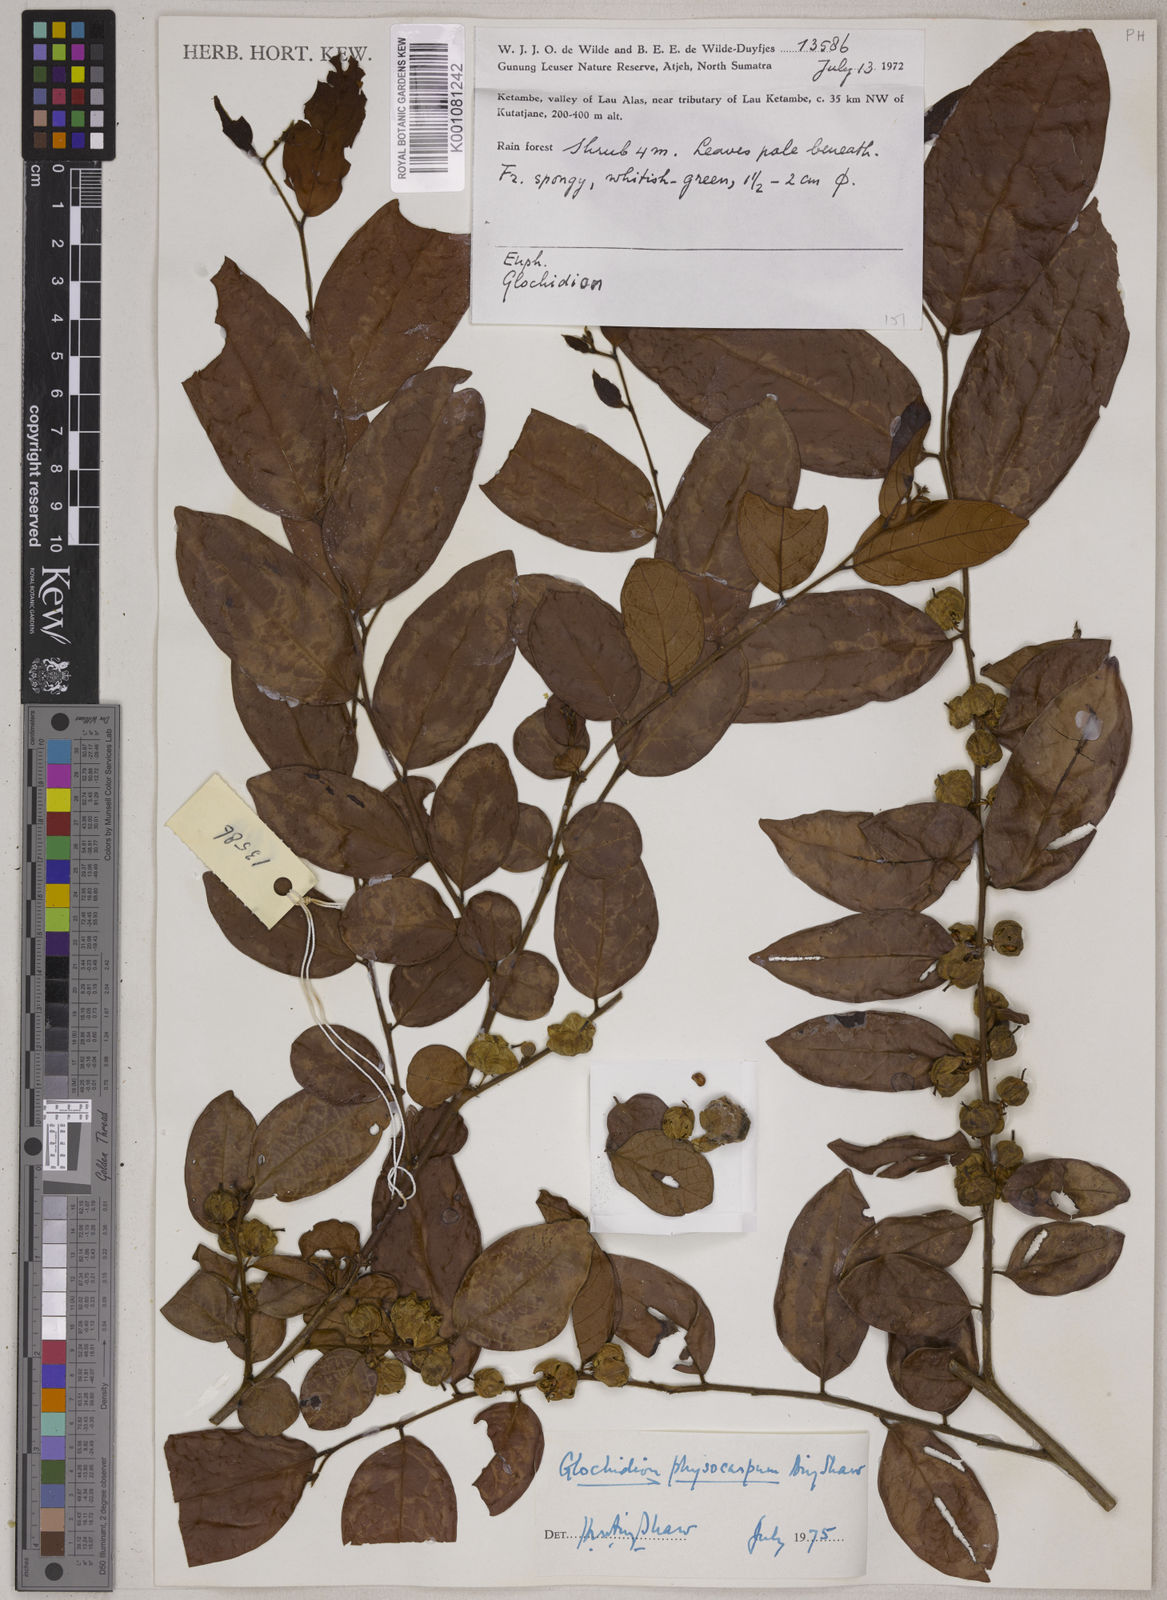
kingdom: Plantae
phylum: Tracheophyta
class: Magnoliopsida
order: Malpighiales
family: Phyllanthaceae
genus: Glochidion
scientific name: Glochidion meijeri
